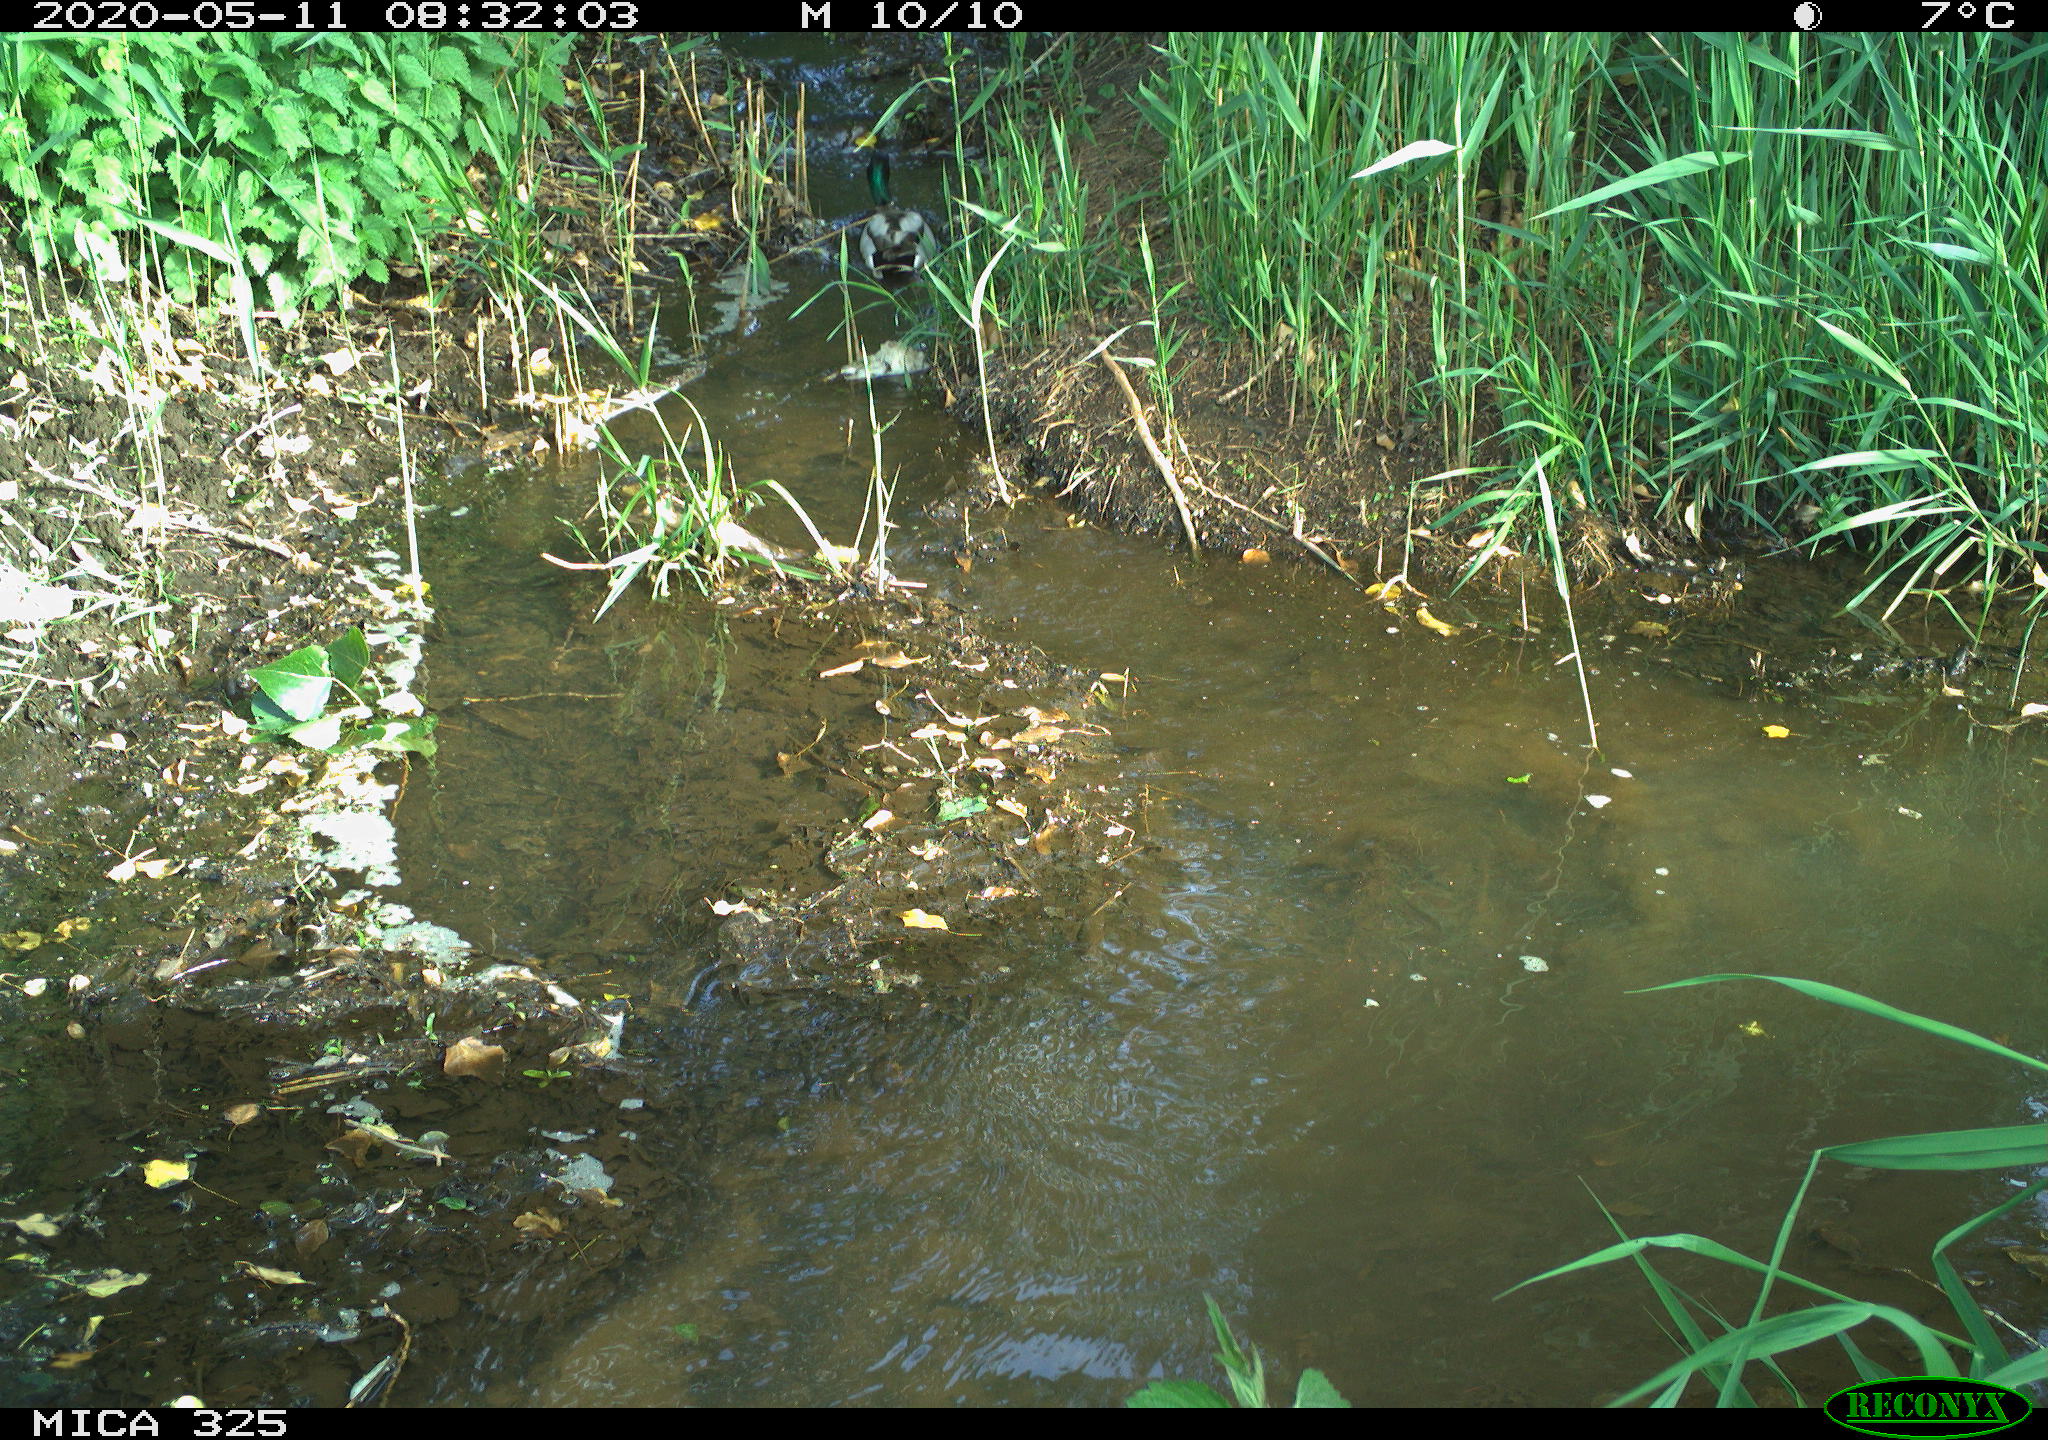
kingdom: Animalia
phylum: Chordata
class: Aves
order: Anseriformes
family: Anatidae
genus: Anas
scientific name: Anas platyrhynchos
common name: Mallard
